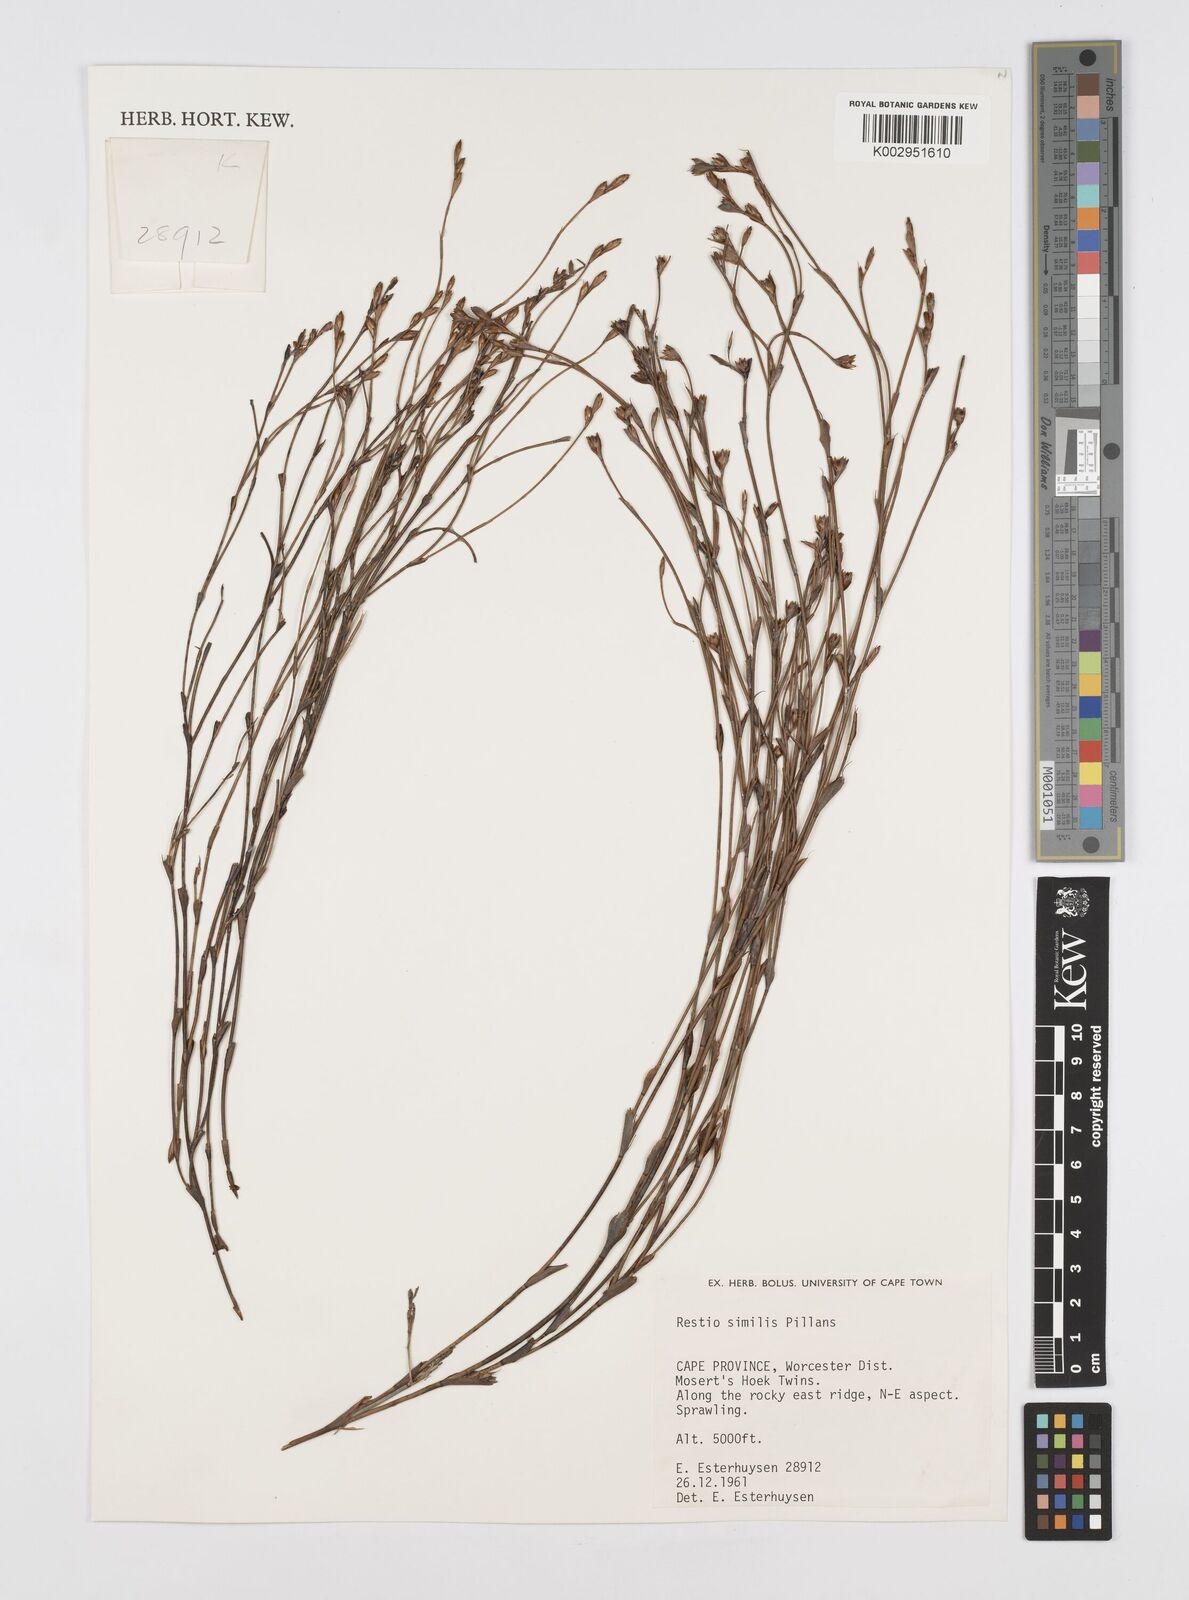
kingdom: Plantae
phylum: Tracheophyta
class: Liliopsida
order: Poales
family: Restionaceae
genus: Restio
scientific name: Restio similis
